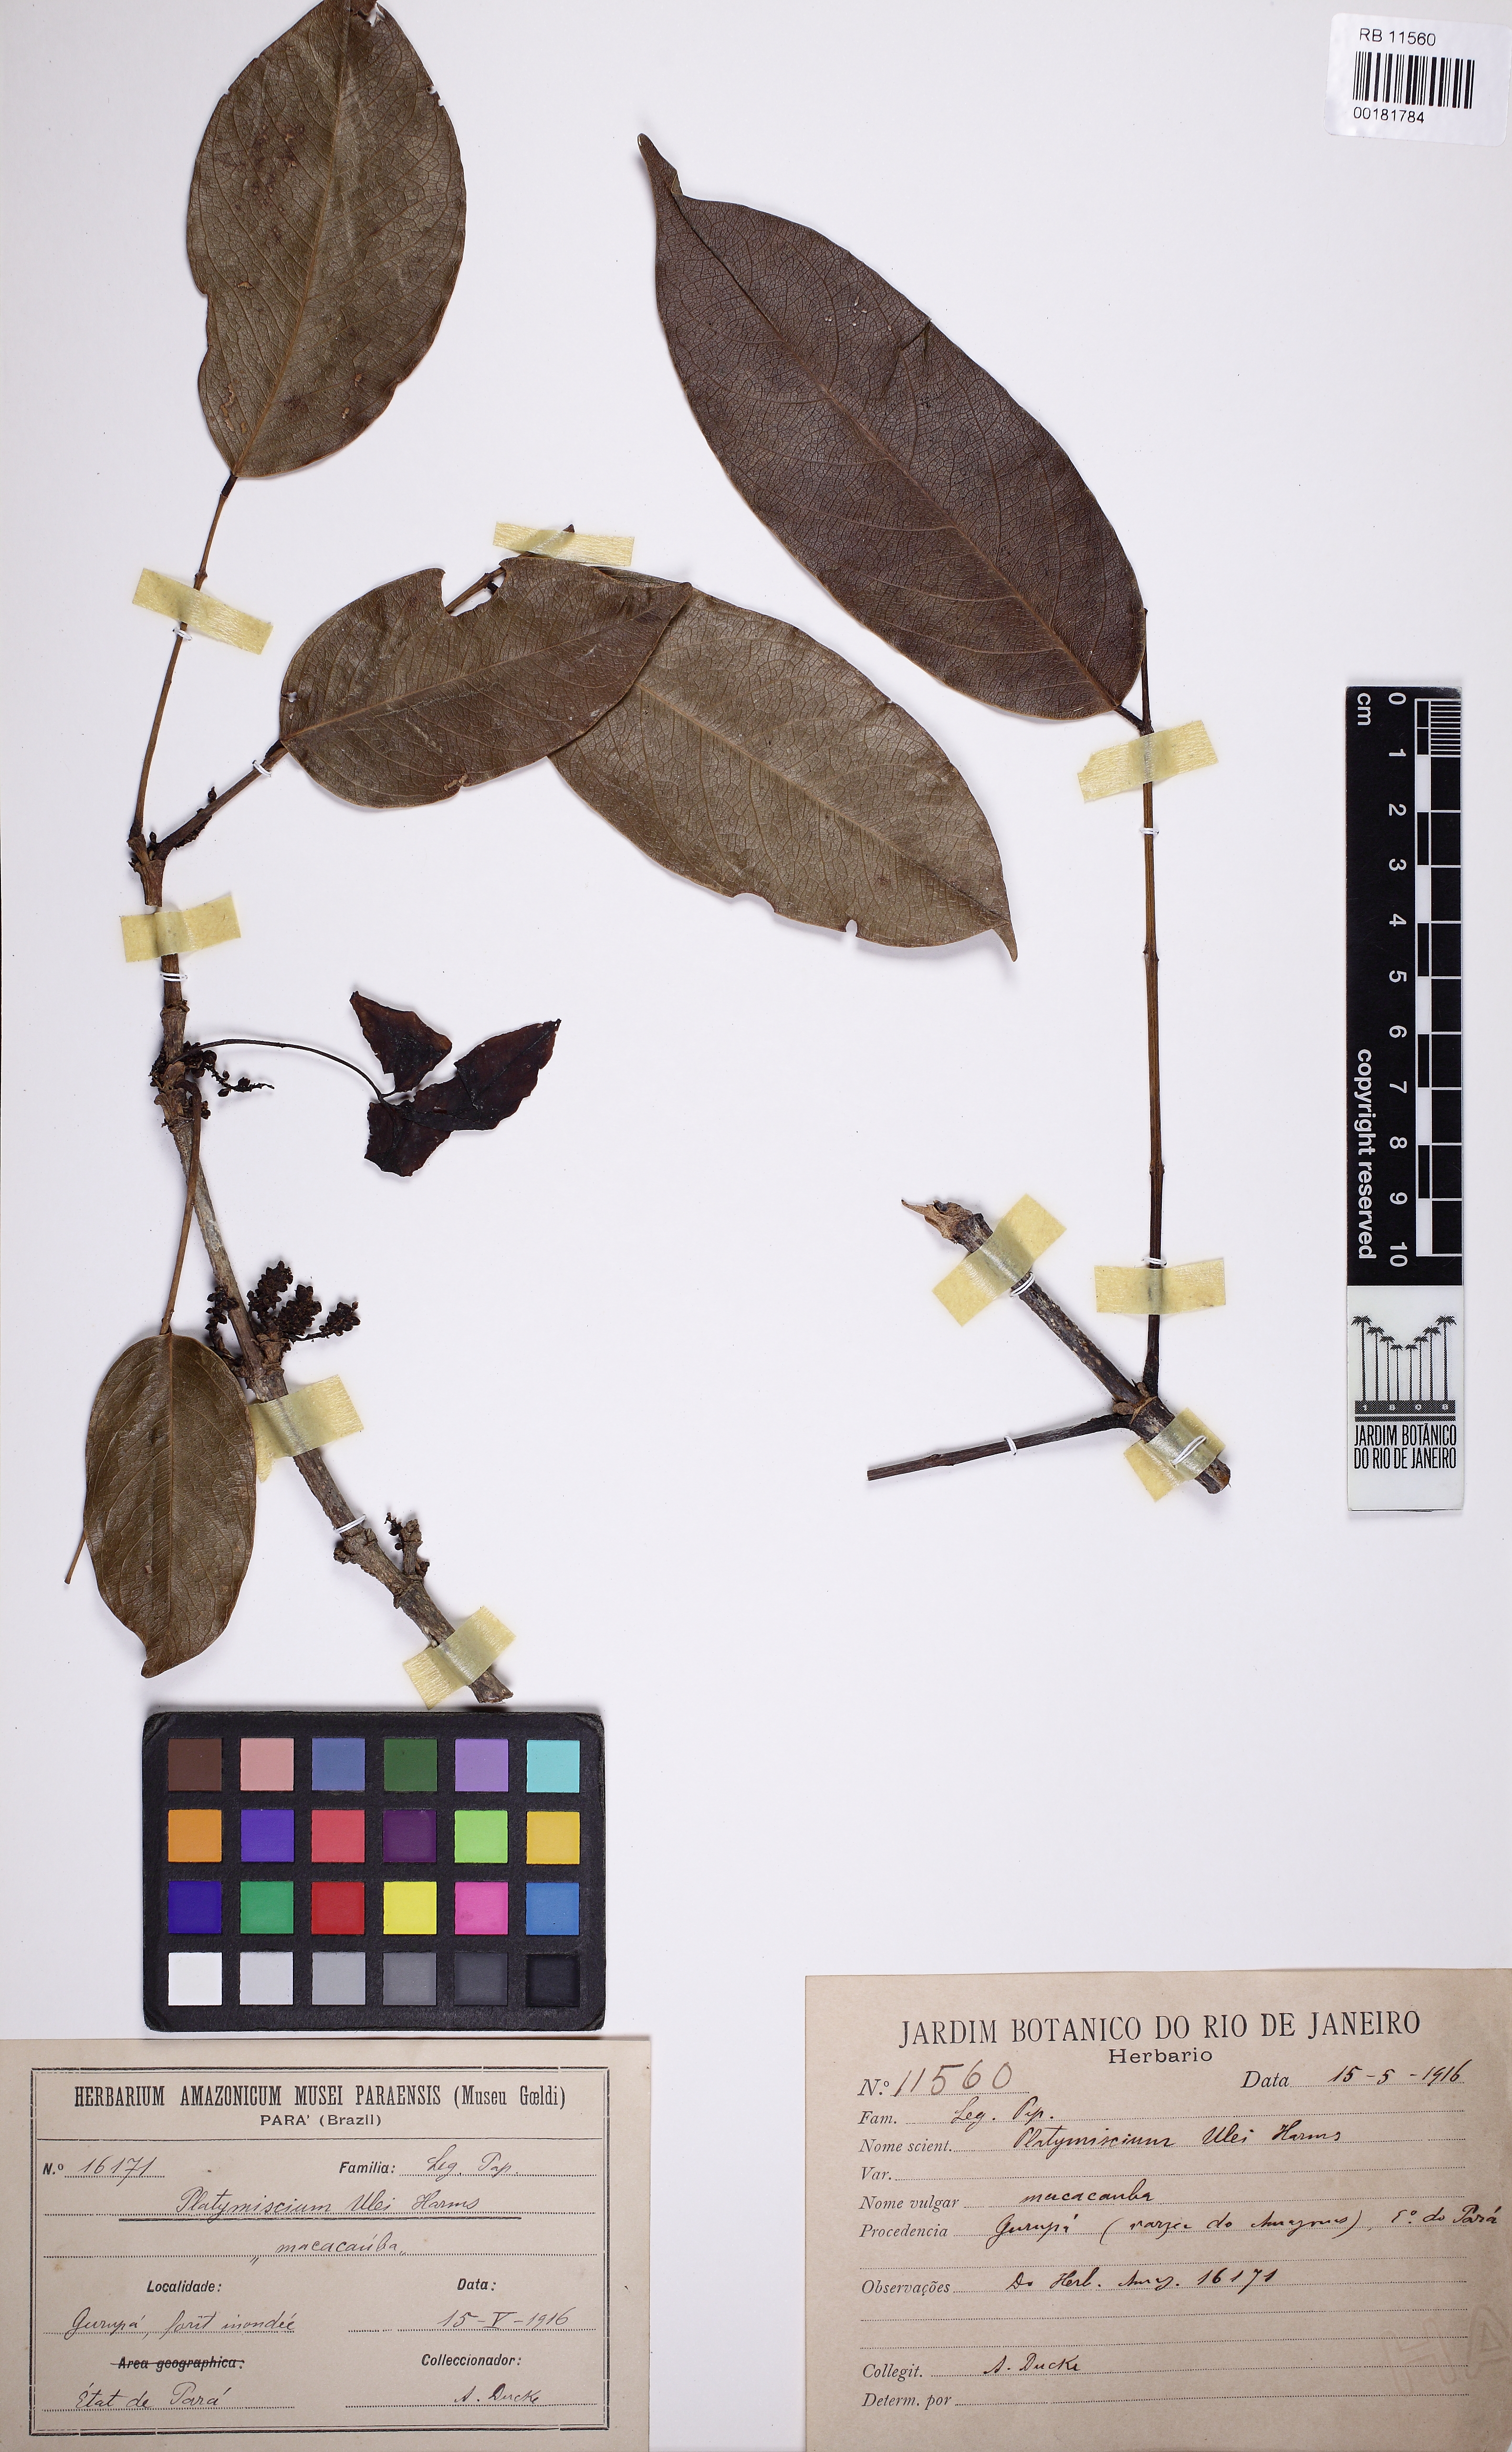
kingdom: Plantae
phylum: Tracheophyta
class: Magnoliopsida
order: Fabales
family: Fabaceae
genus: Platymiscium
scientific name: Platymiscium pinnatum
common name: Panama redwood
